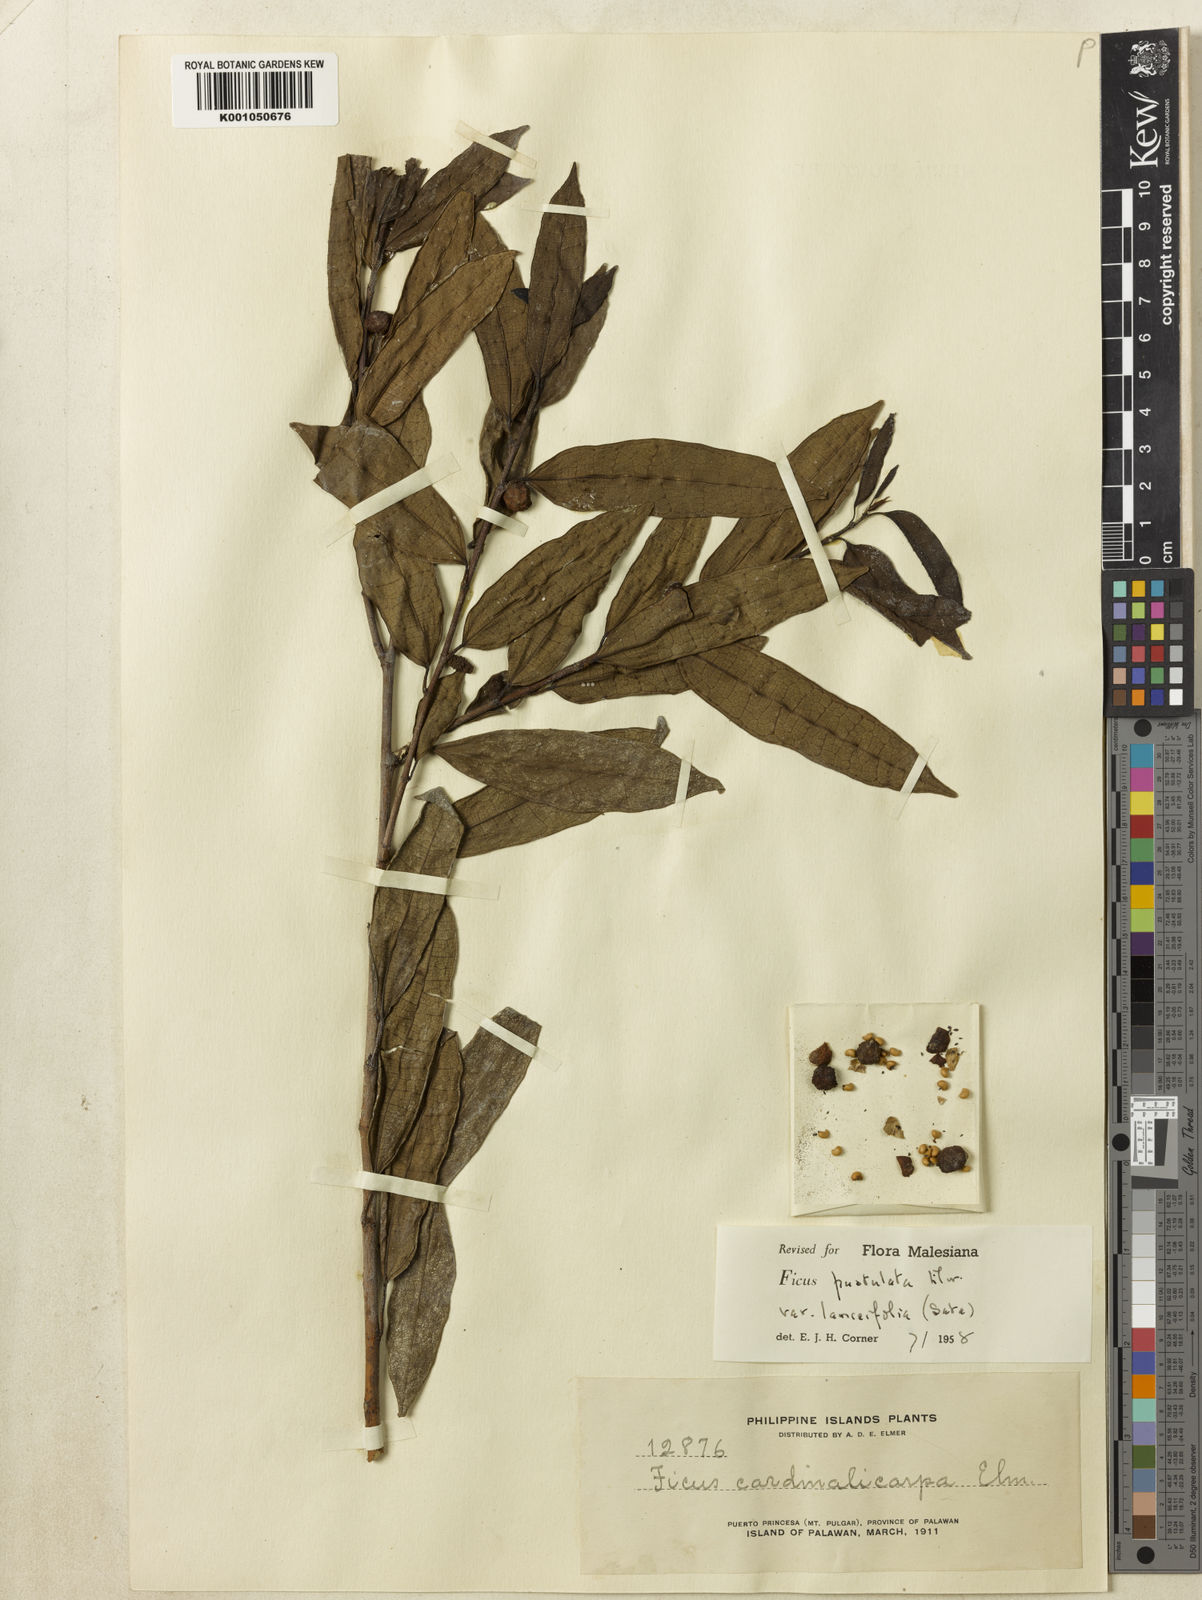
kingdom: Plantae
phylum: Tracheophyta
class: Magnoliopsida
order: Rosales
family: Moraceae
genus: Ficus
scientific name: Ficus pustulata
